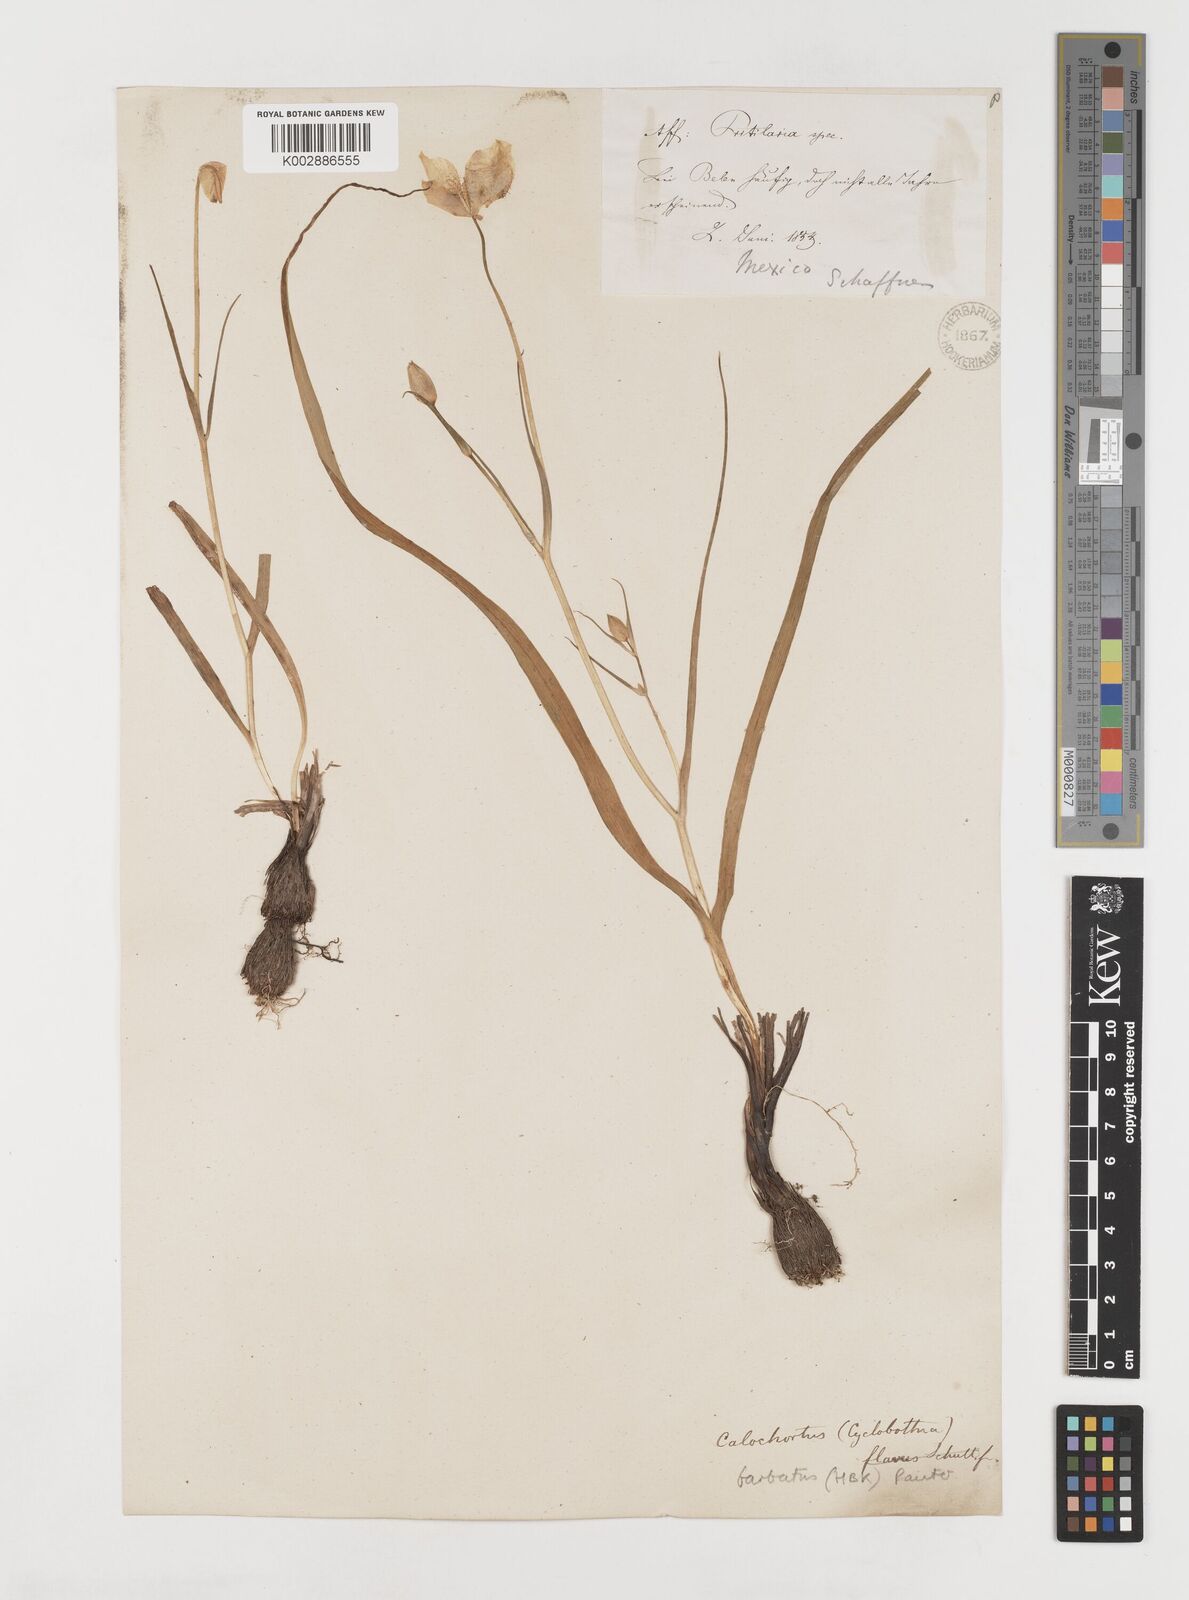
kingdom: Plantae
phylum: Tracheophyta
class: Liliopsida
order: Liliales
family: Liliaceae
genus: Calochortus
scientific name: Calochortus barbatus
